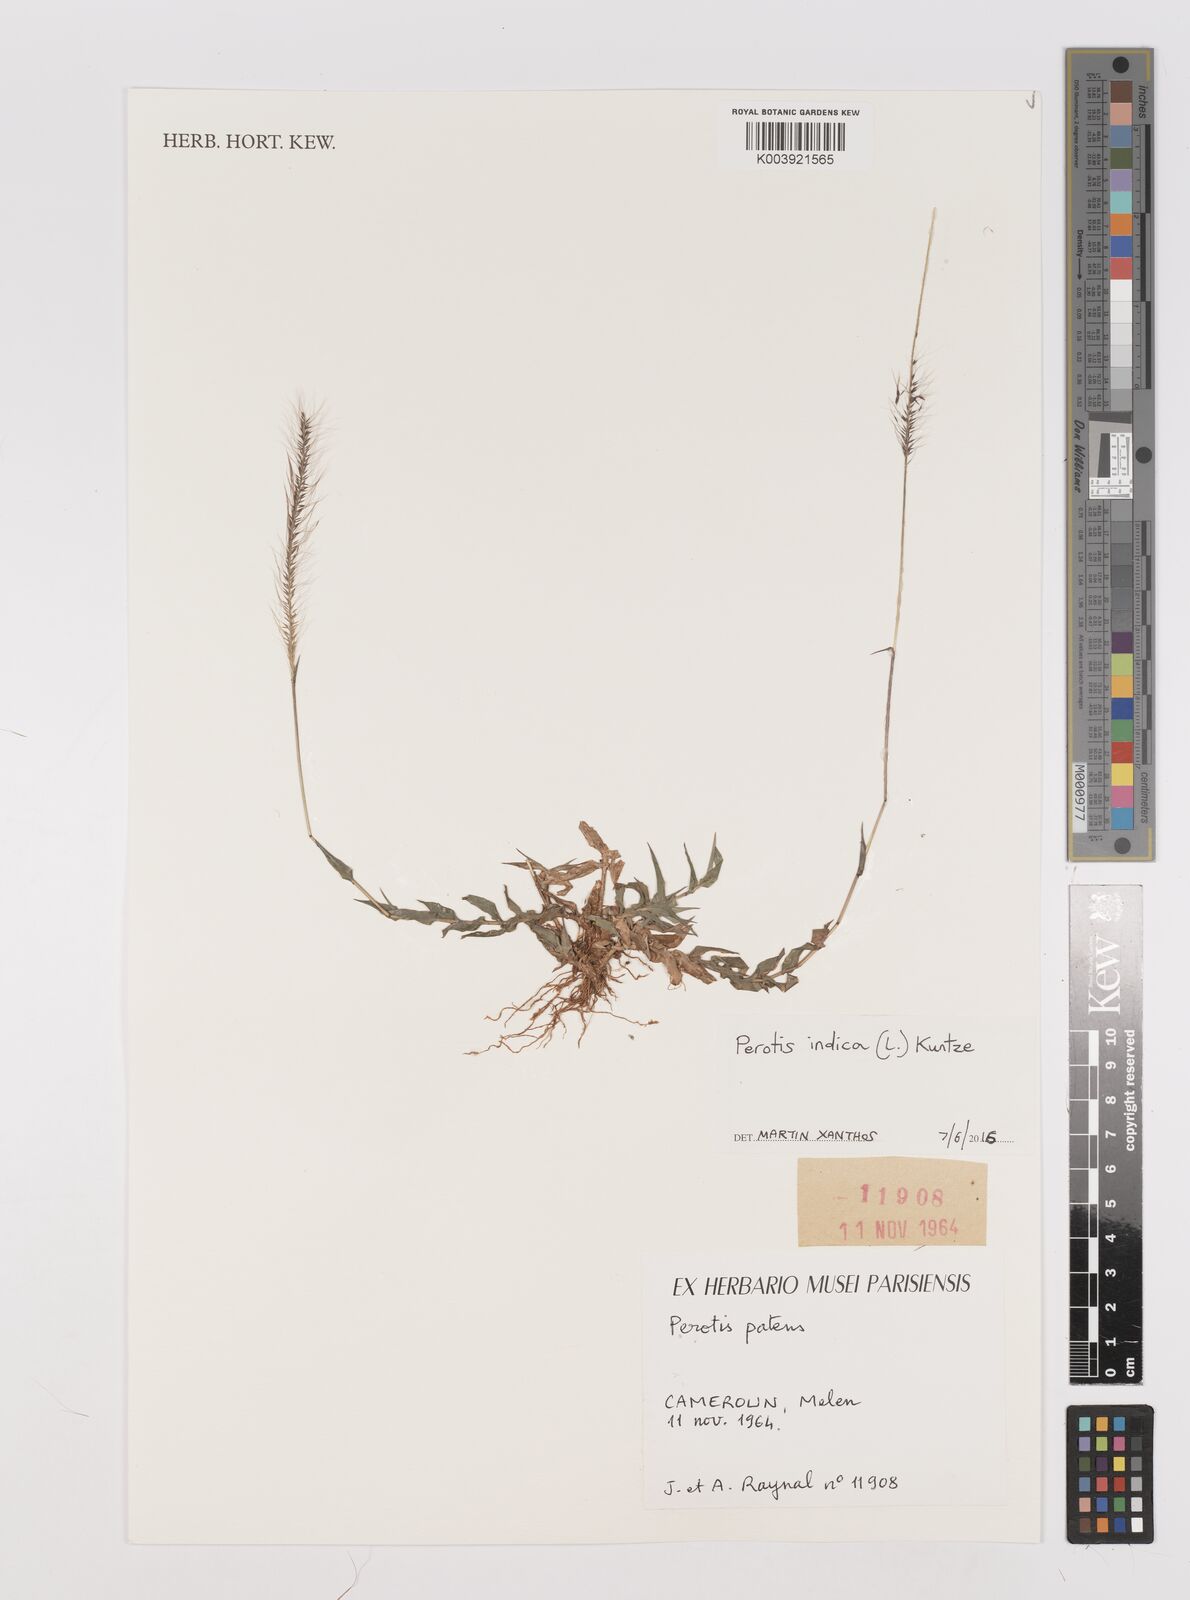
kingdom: Plantae
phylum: Tracheophyta
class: Liliopsida
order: Poales
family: Poaceae
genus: Perotis
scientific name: Perotis indica
